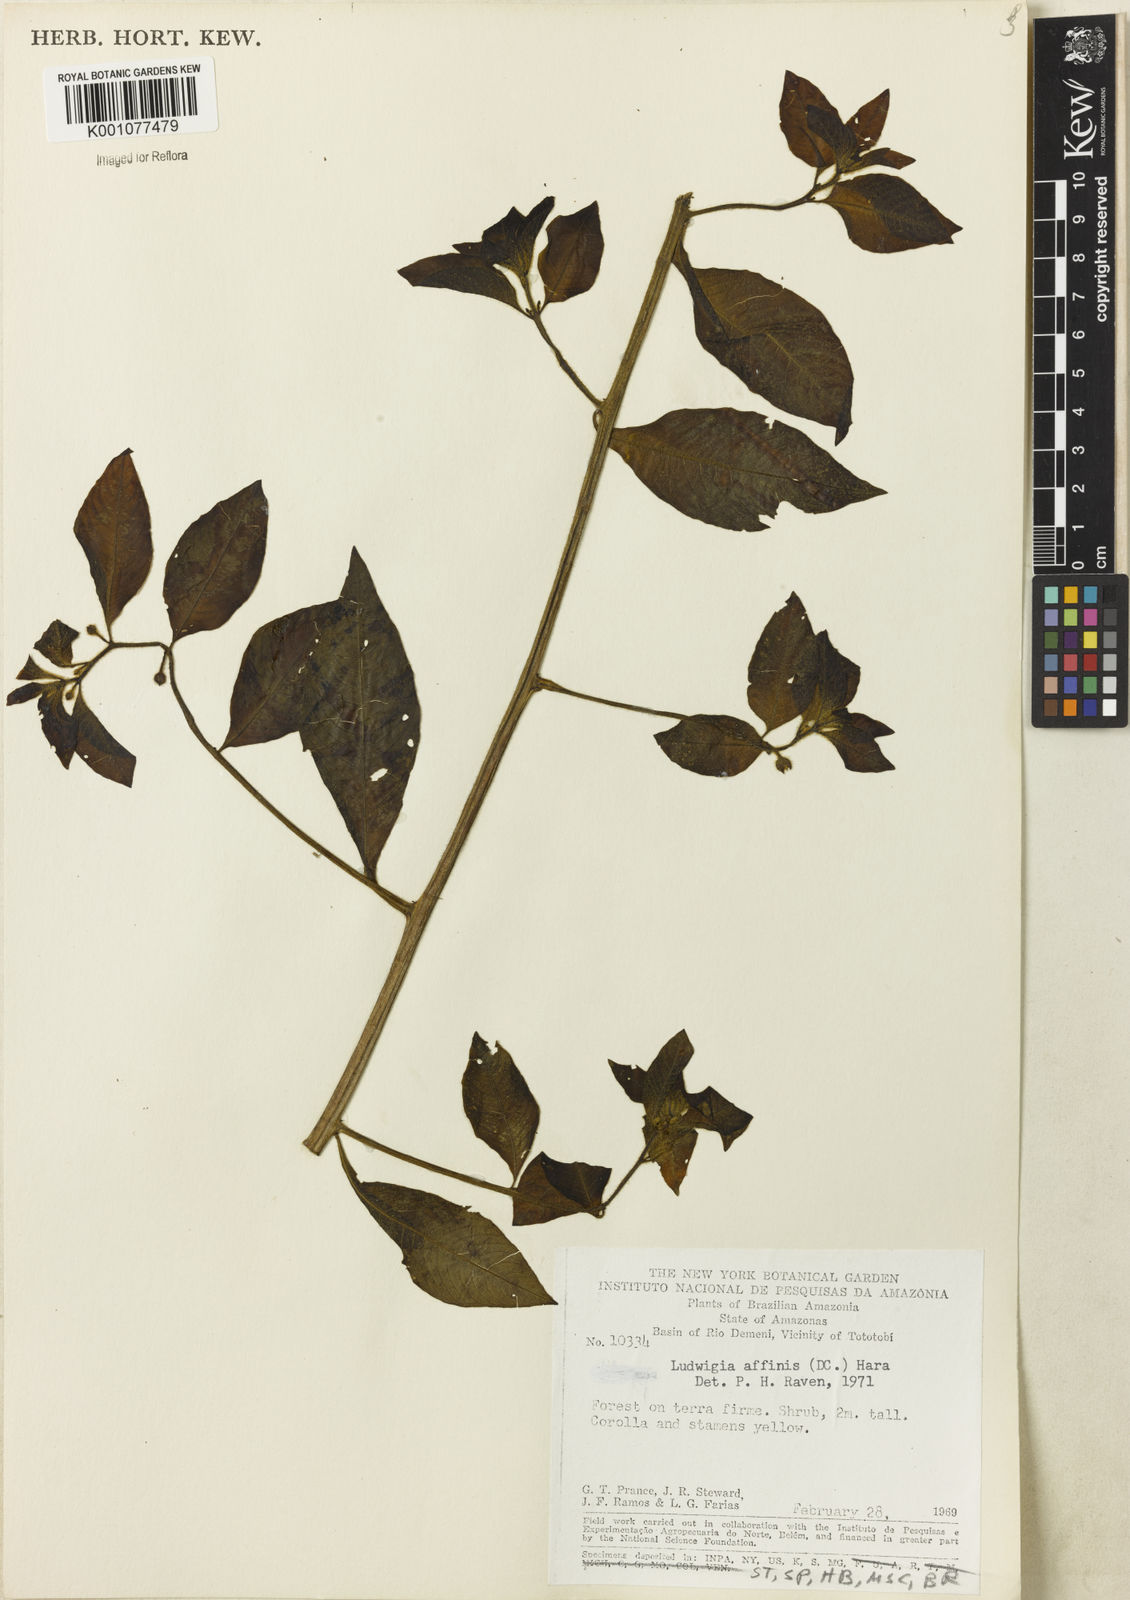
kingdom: Plantae
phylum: Tracheophyta
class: Magnoliopsida
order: Myrtales
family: Onagraceae
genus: Ludwigia
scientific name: Ludwigia affinis
